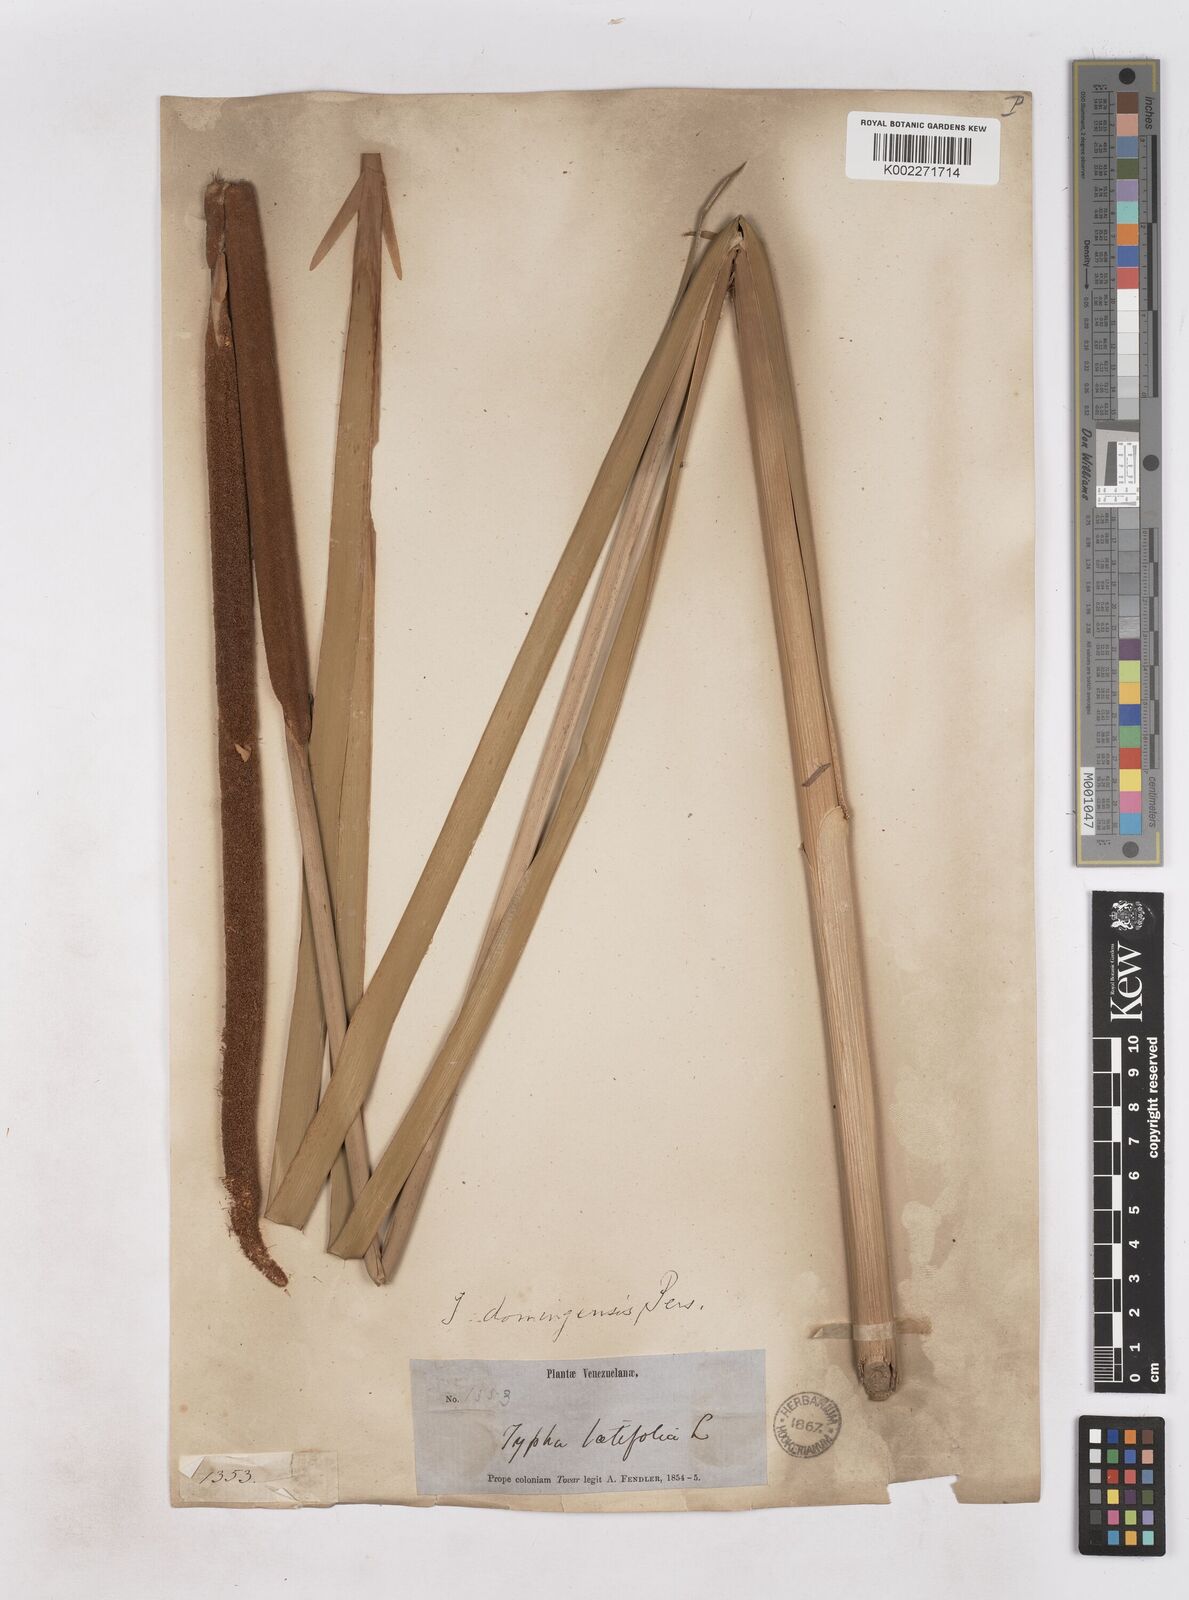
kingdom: Plantae
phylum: Tracheophyta
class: Liliopsida
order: Poales
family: Typhaceae
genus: Typha
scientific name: Typha domingensis
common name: Southern cattail
